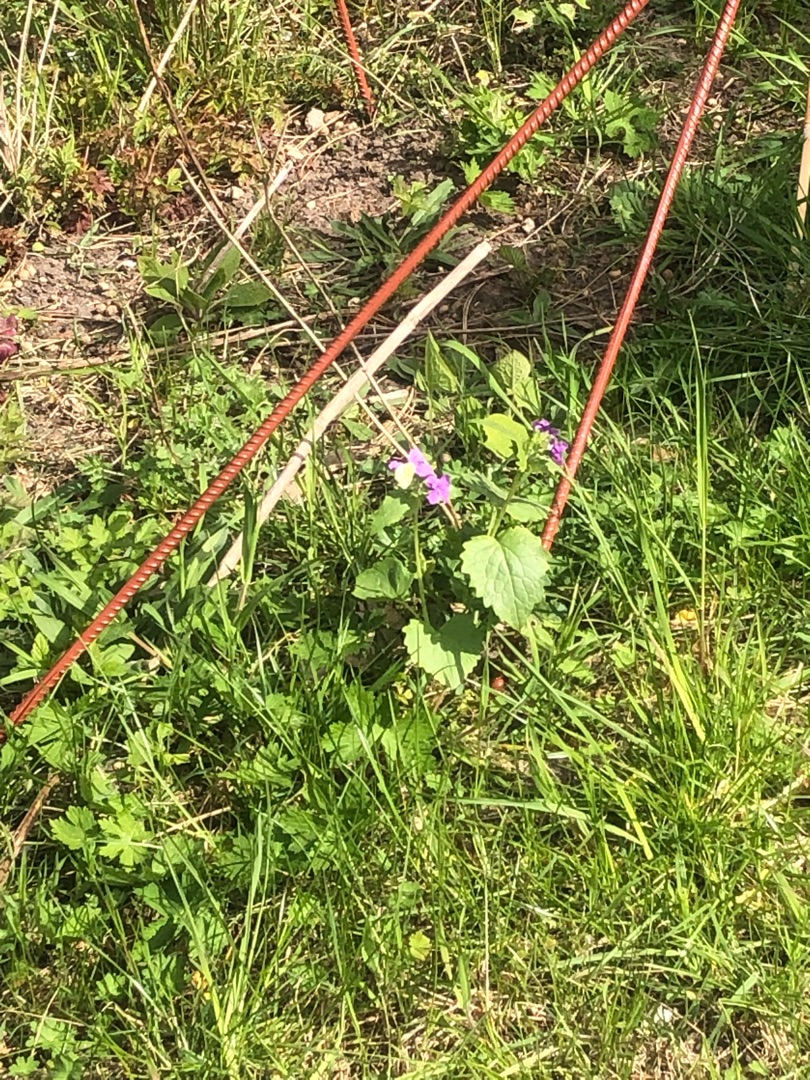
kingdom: Animalia
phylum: Arthropoda
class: Insecta
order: Lepidoptera
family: Pieridae
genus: Anthocharis
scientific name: Anthocharis cardamines
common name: Aurora
